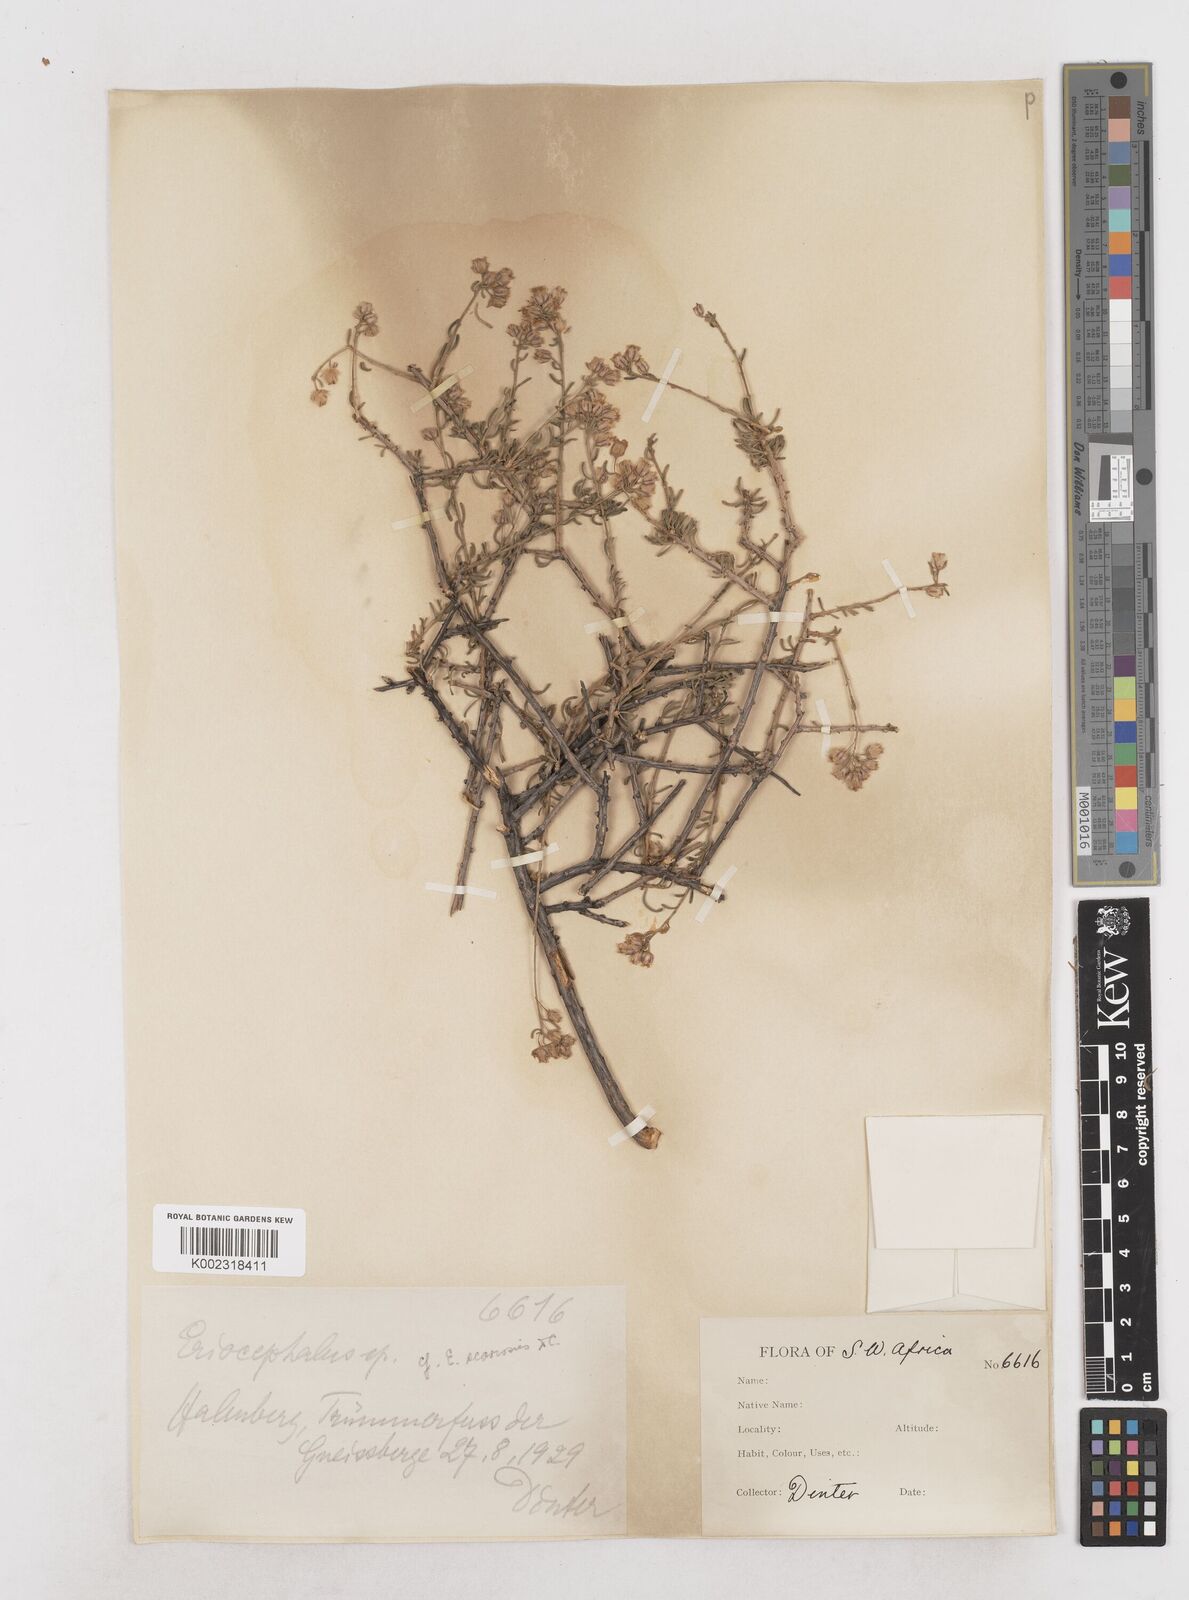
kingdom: Plantae
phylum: Tracheophyta
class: Magnoliopsida
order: Asterales
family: Asteraceae
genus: Eriocephalus
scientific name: Eriocephalus
